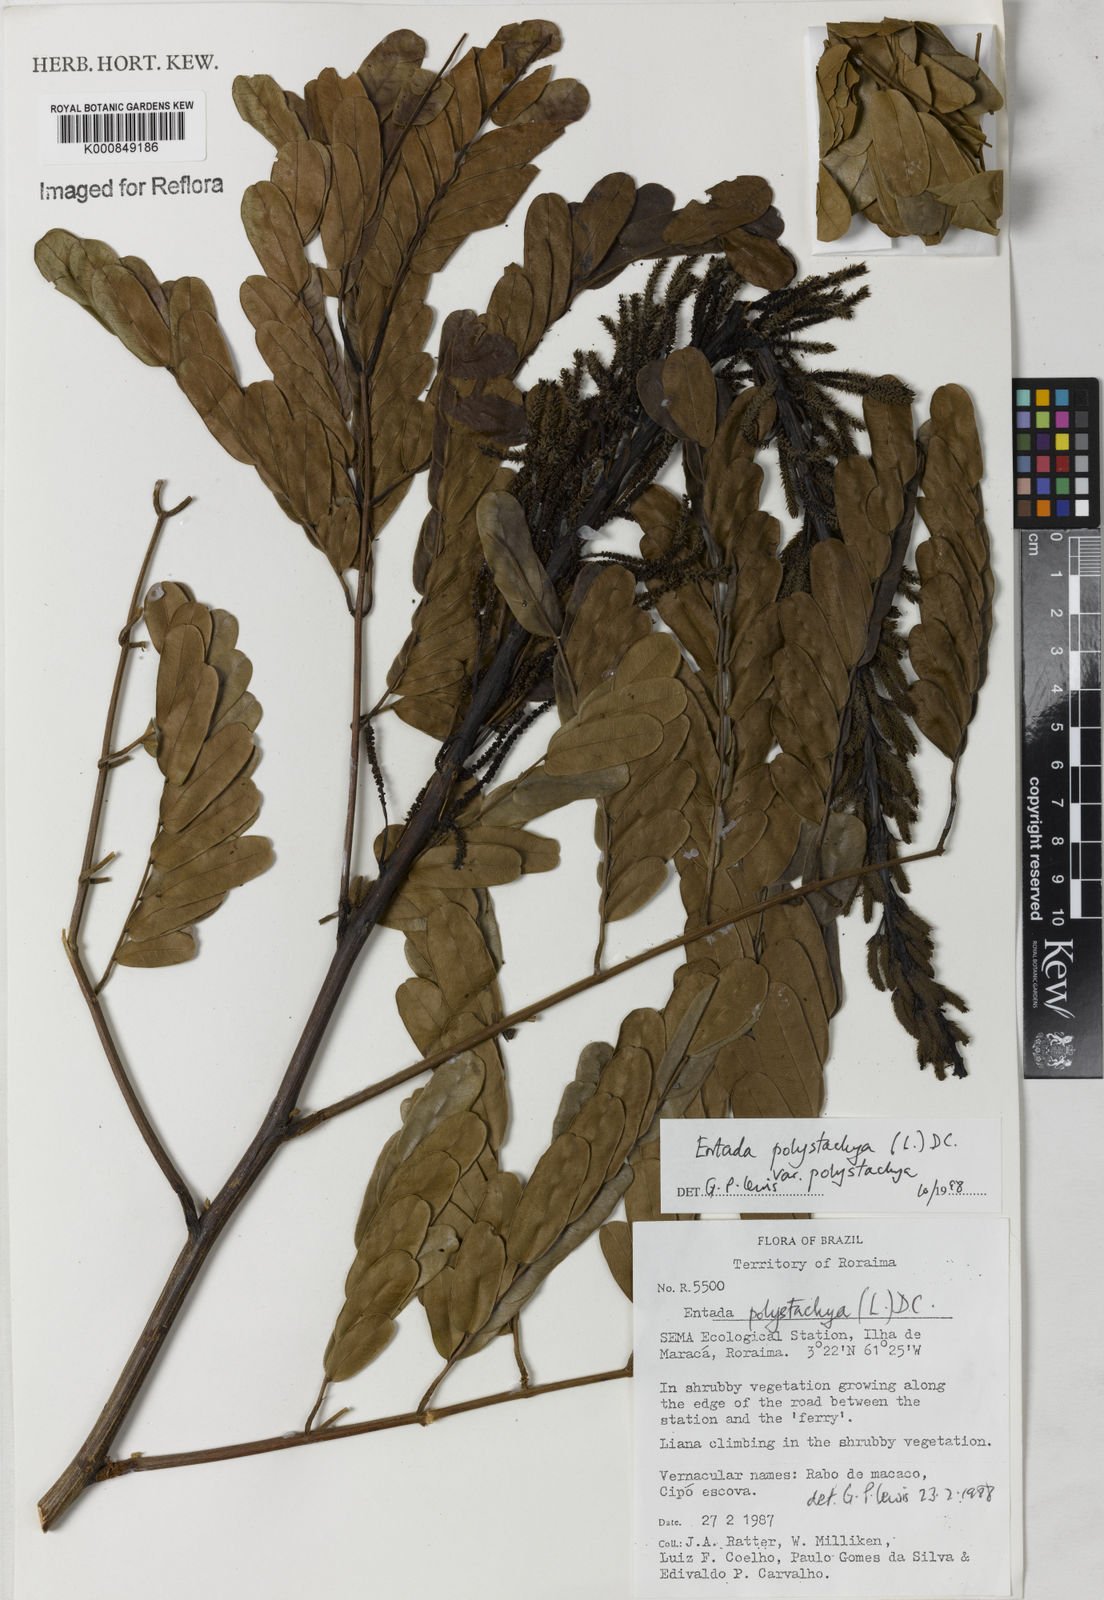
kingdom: Plantae
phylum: Tracheophyta
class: Magnoliopsida
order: Fabales
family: Fabaceae
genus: Entada
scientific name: Entada polystachya
